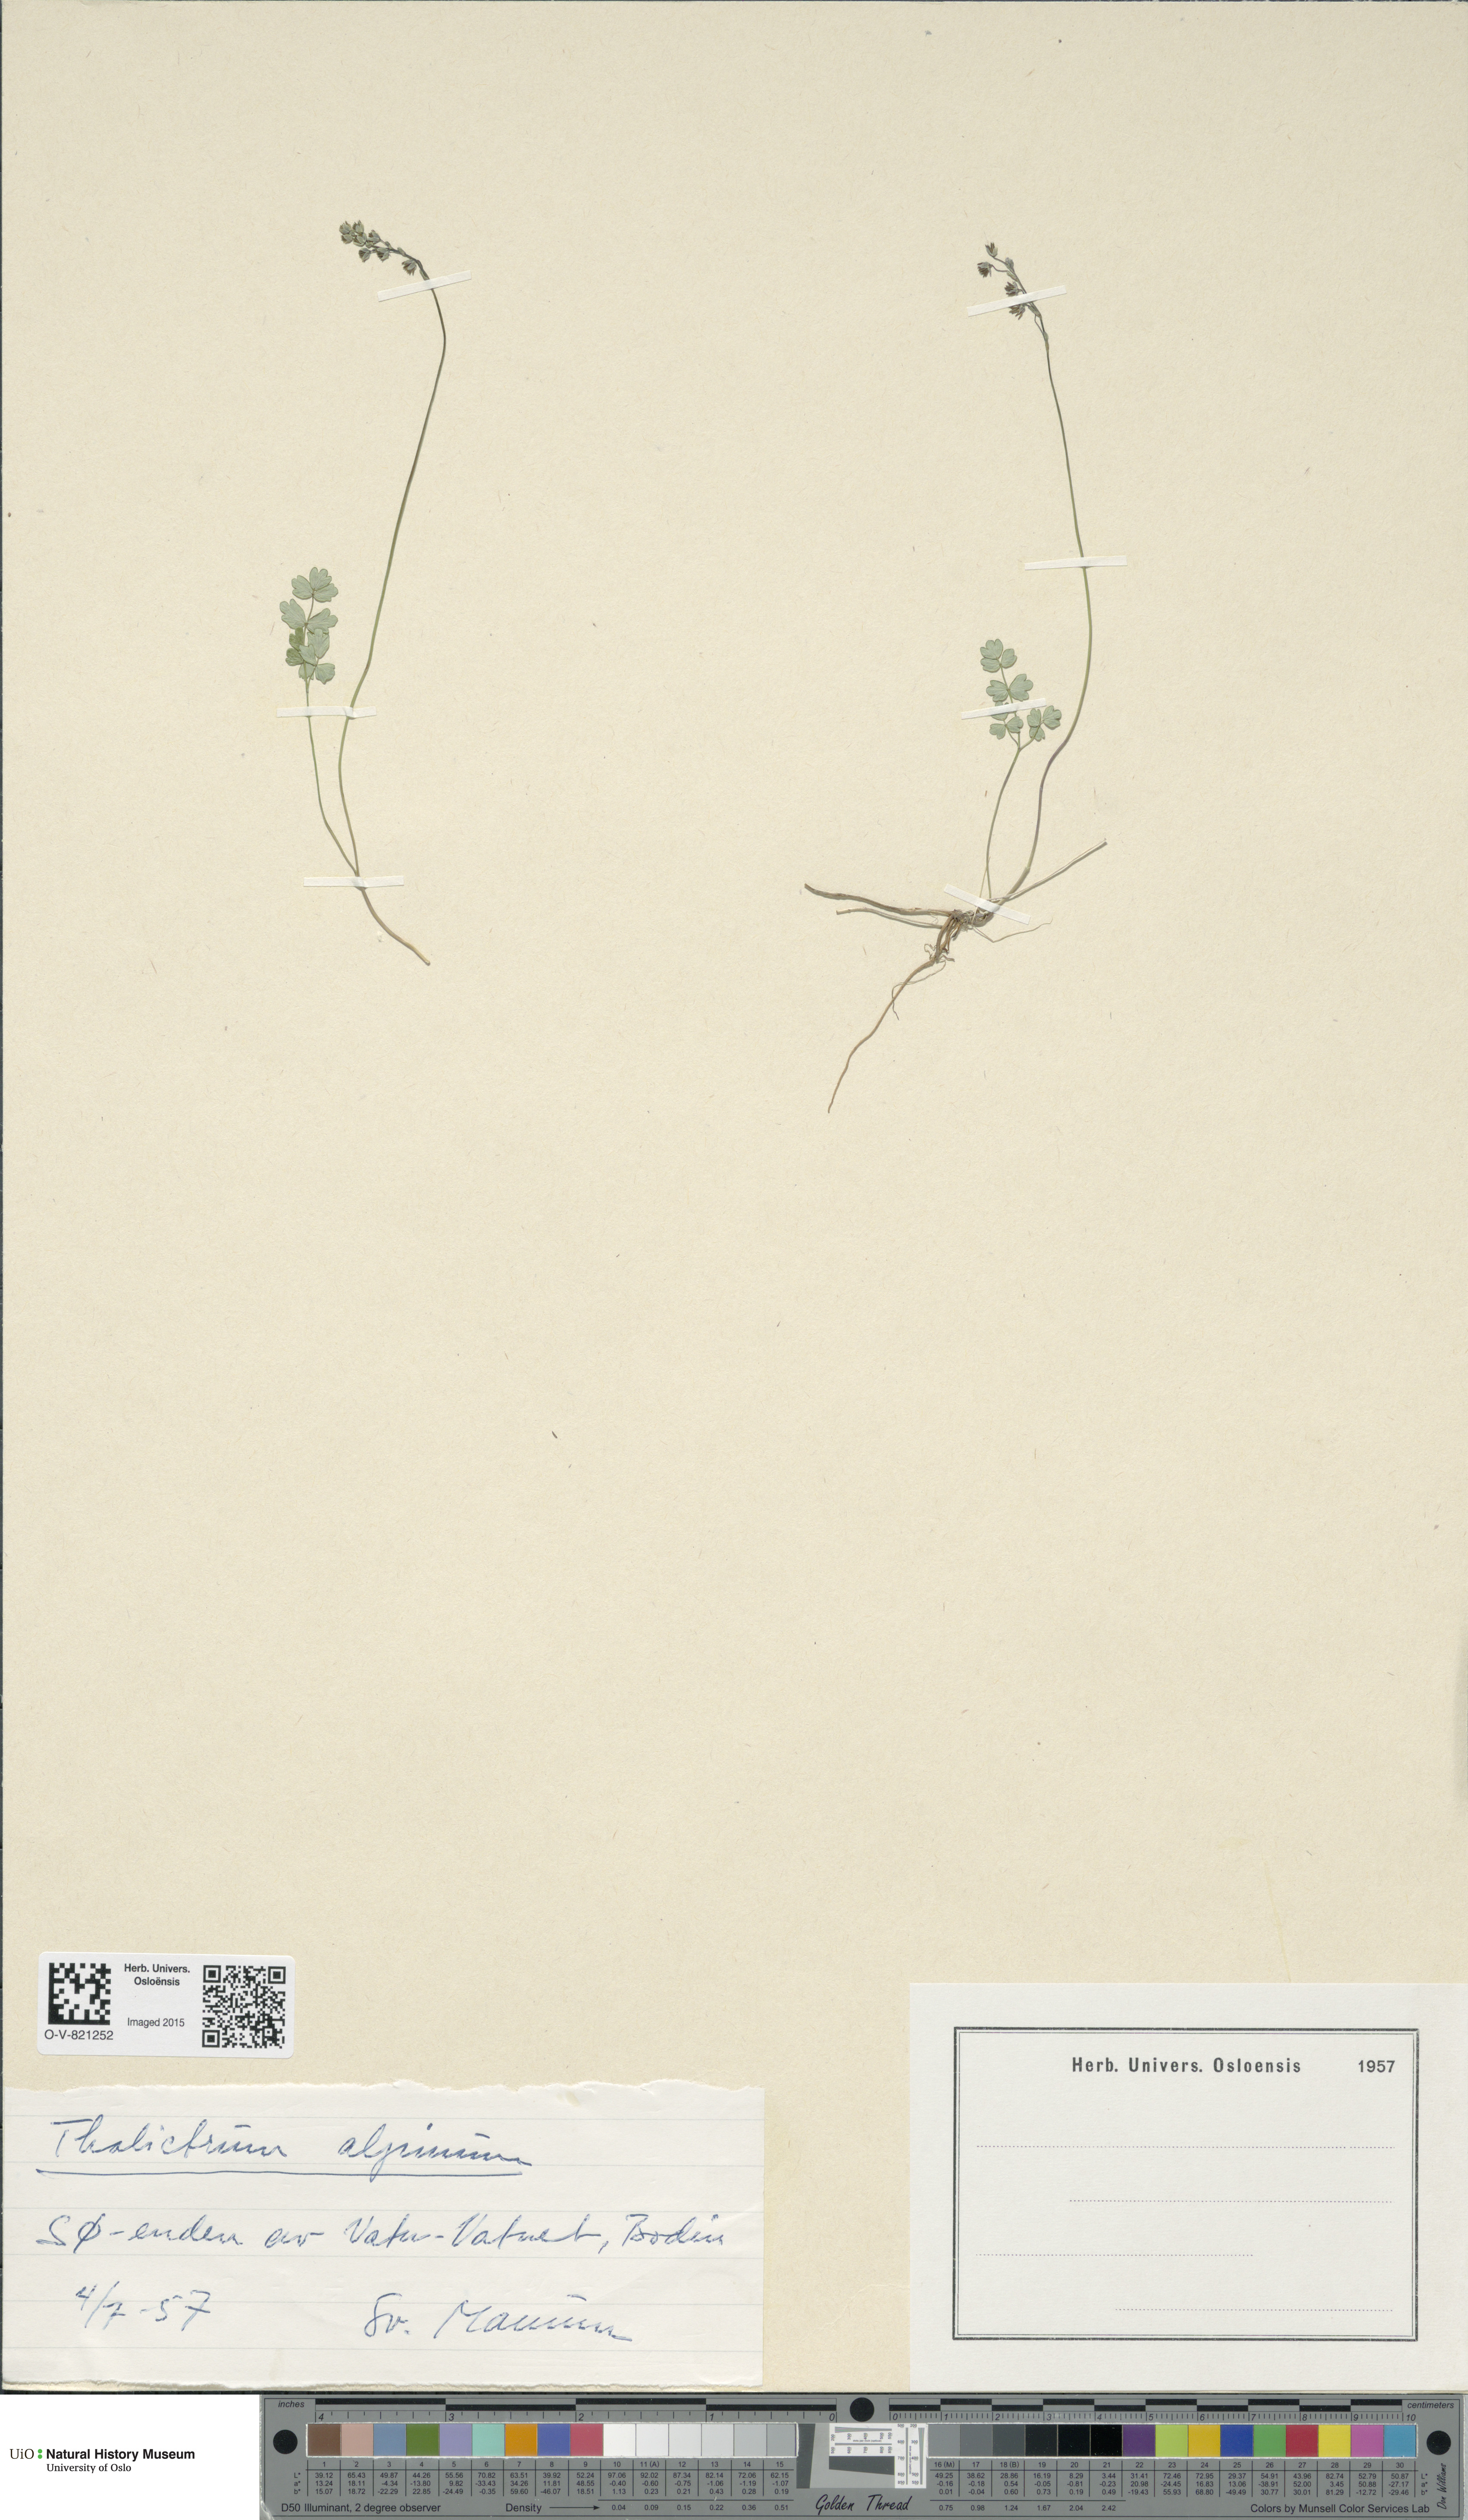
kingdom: Plantae
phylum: Tracheophyta
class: Magnoliopsida
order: Ranunculales
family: Ranunculaceae
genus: Thalictrum
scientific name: Thalictrum alpinum
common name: Alpine meadow-rue
